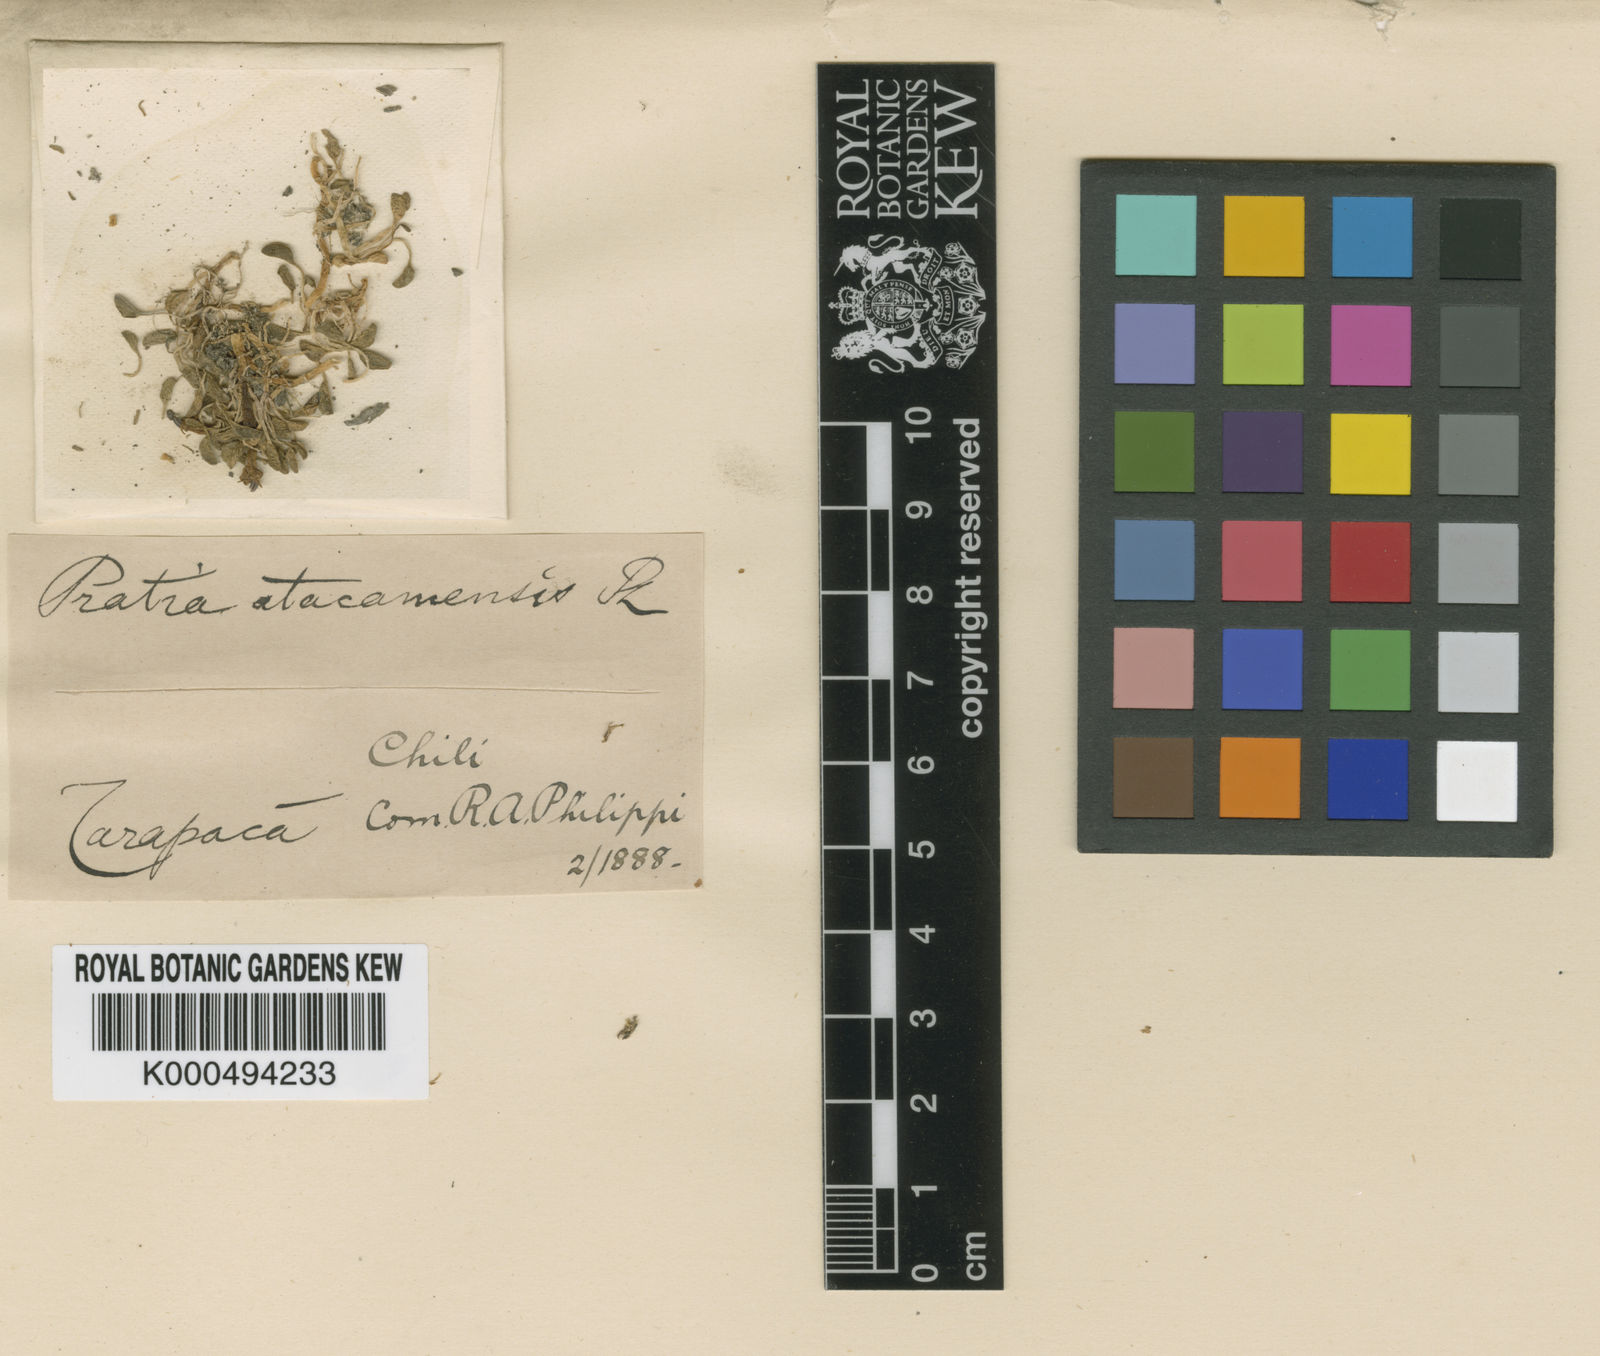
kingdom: Plantae
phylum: Tracheophyta
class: Magnoliopsida
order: Asterales
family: Campanulaceae
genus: Lobelia
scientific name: Lobelia oligophylla
